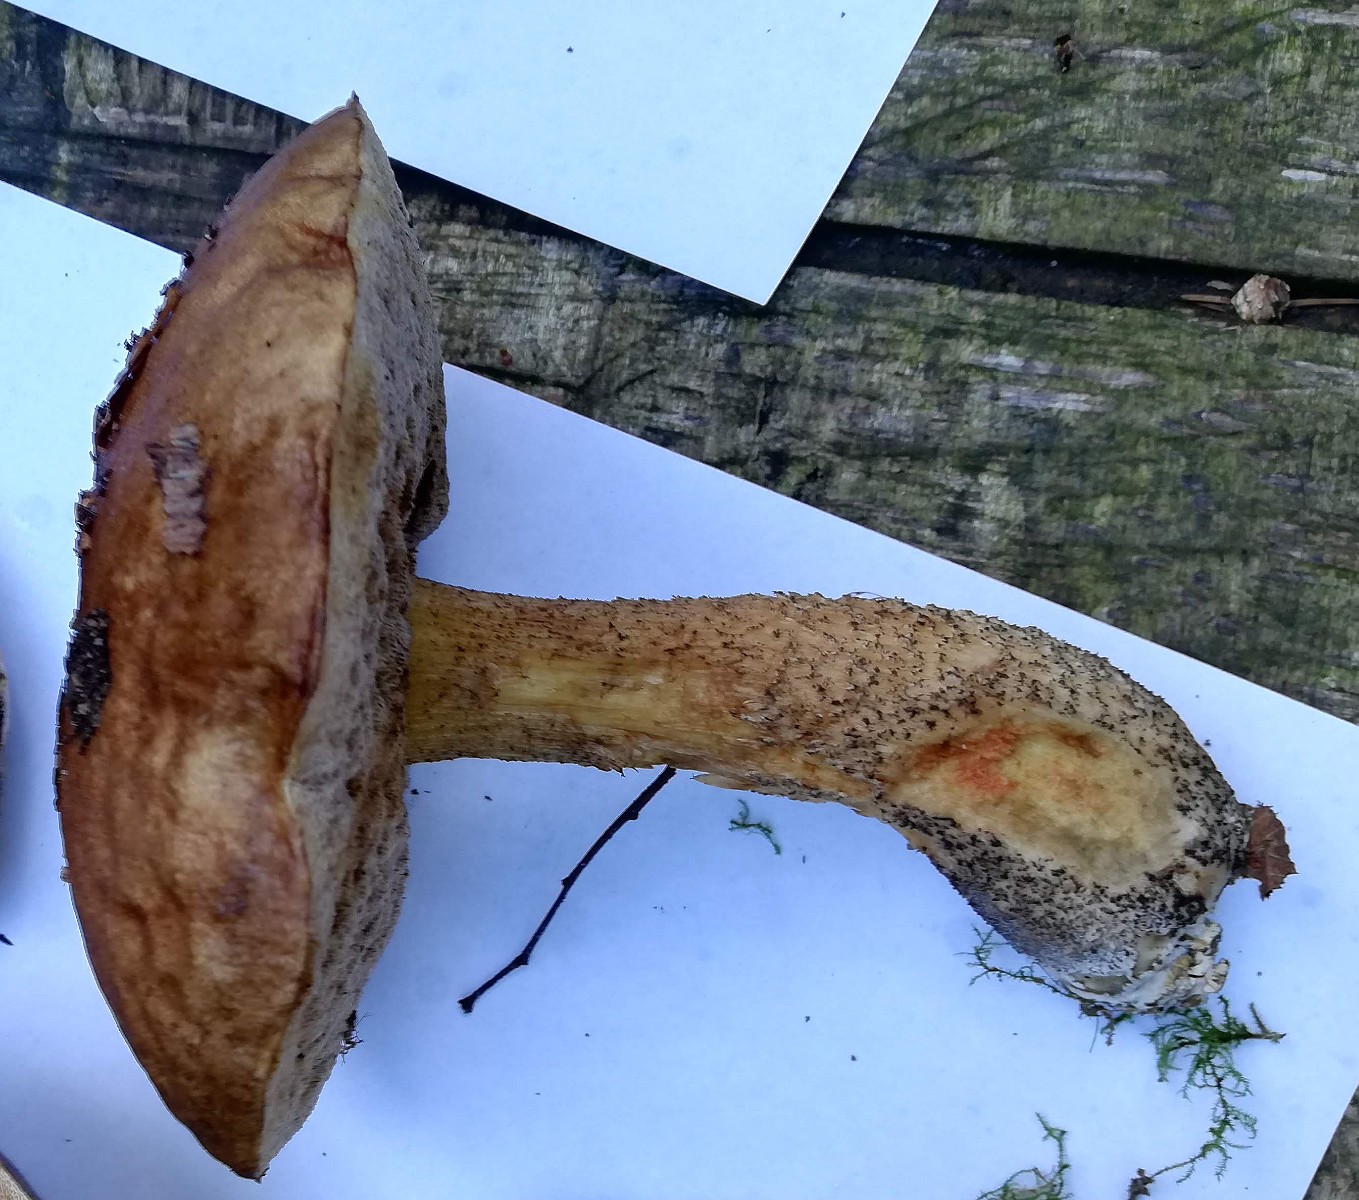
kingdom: Fungi
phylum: Basidiomycota
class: Agaricomycetes
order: Boletales
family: Boletaceae
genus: Leccinum
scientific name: Leccinum
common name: skælrørhat
